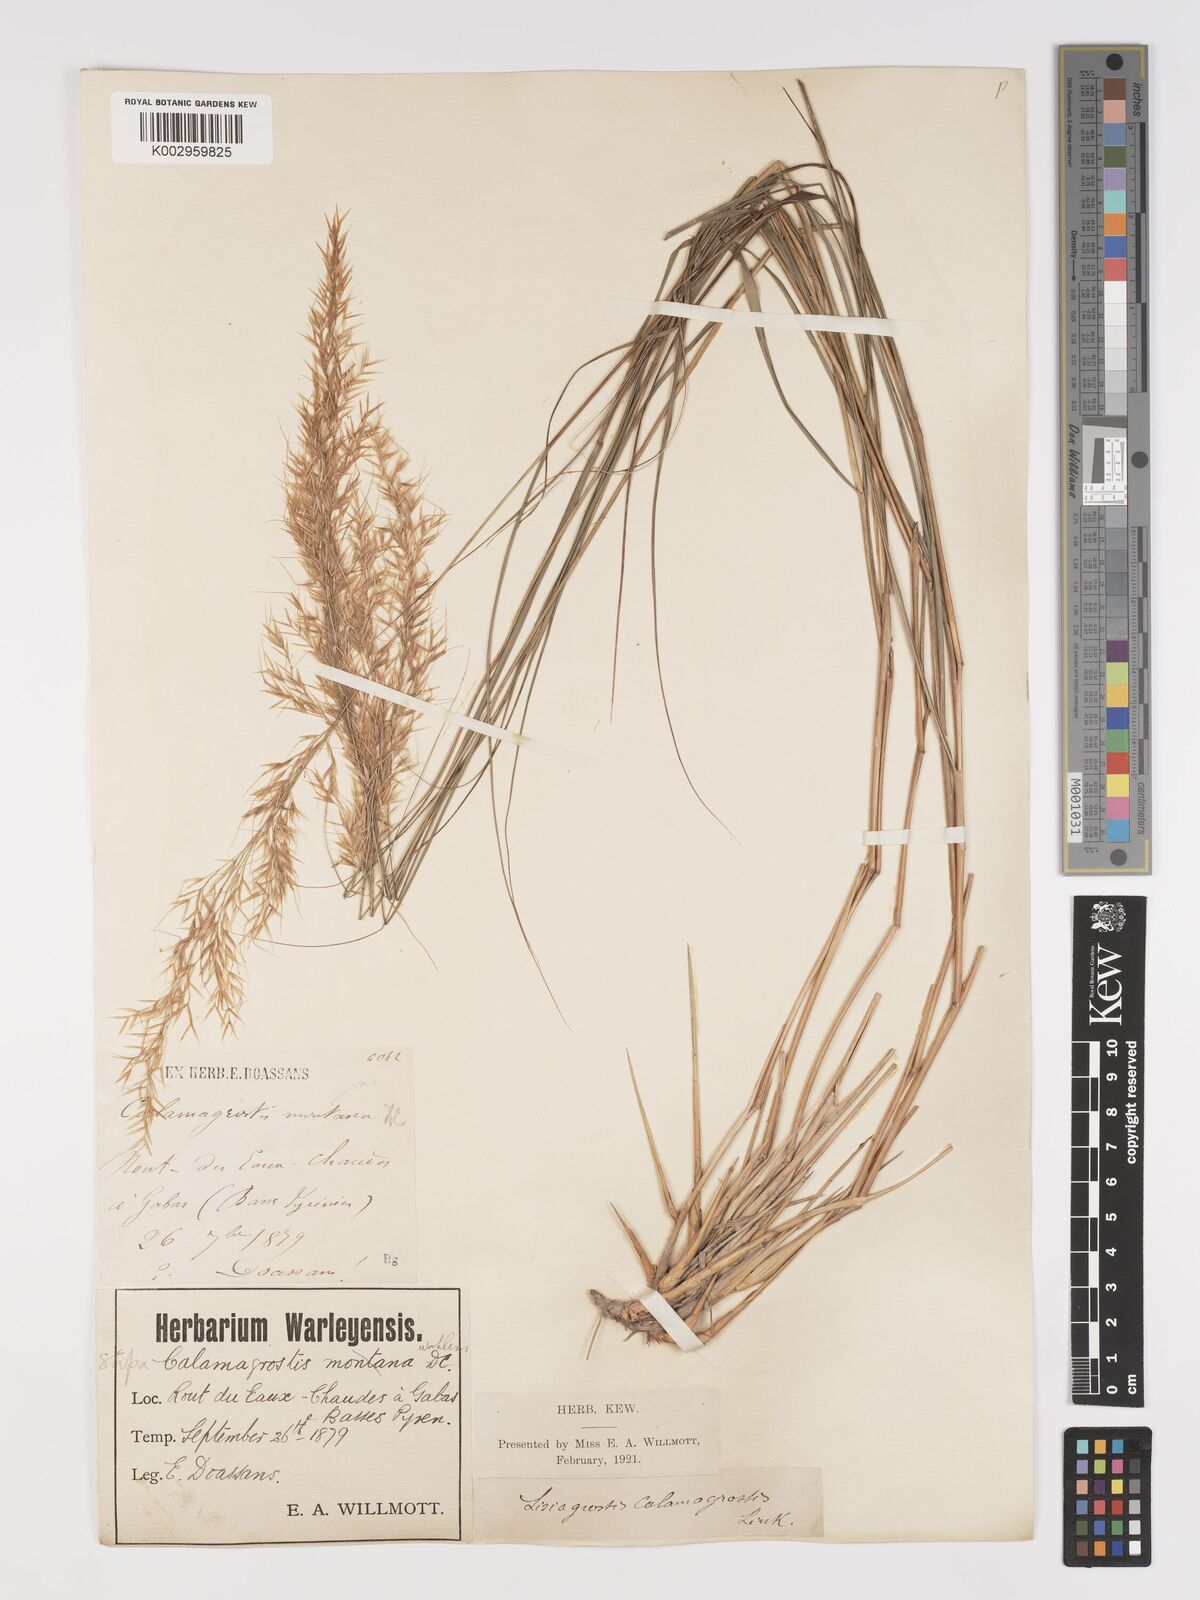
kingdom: Plantae
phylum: Tracheophyta
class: Liliopsida
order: Poales
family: Poaceae
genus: Achnatherum
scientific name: Achnatherum calamagrostis
